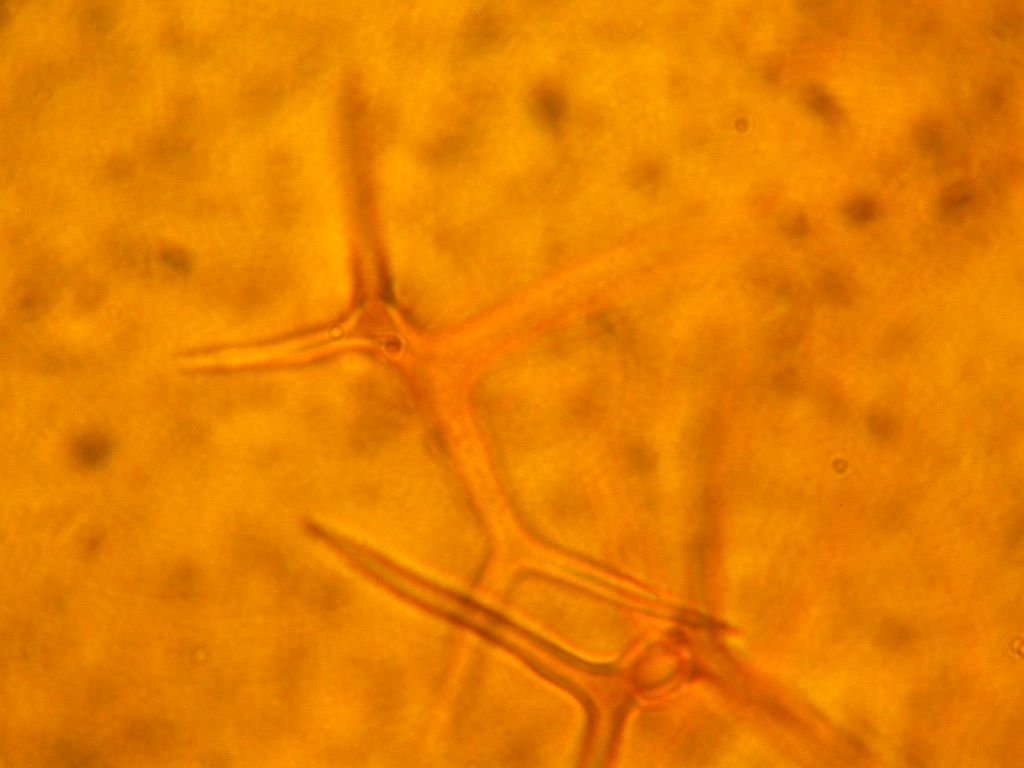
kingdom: Fungi
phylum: Basidiomycota
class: Agaricomycetes
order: Russulales
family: Peniophoraceae
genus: Asterostroma
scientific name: Asterostroma laxum
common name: lysrandet stjerneskind
